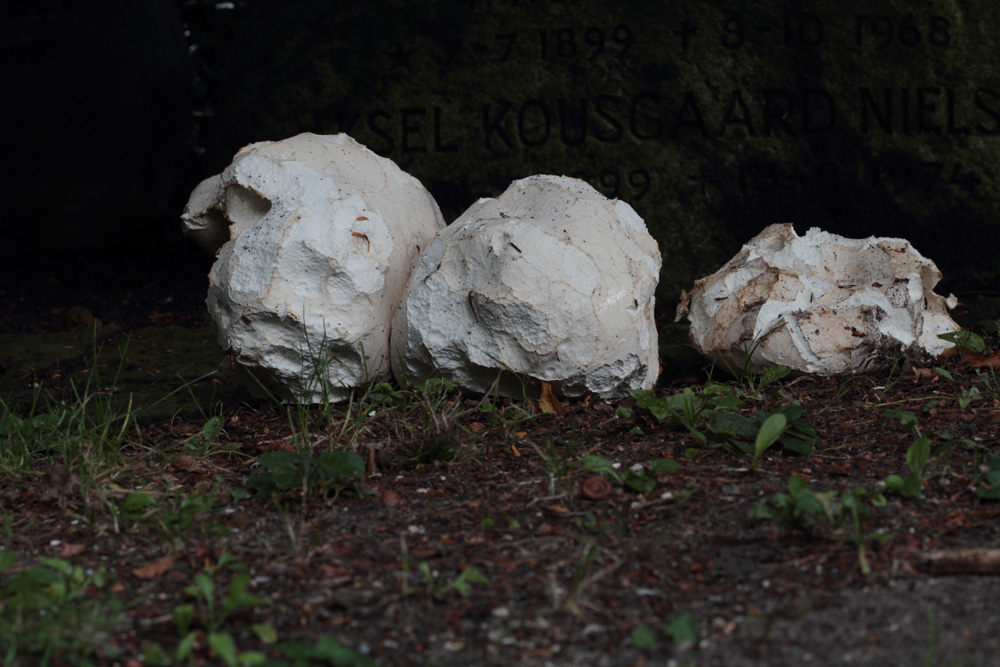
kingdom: Fungi
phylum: Basidiomycota
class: Agaricomycetes
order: Agaricales
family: Lycoperdaceae
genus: Calvatia
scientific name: Calvatia gigantea
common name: kæmpestøvbold
